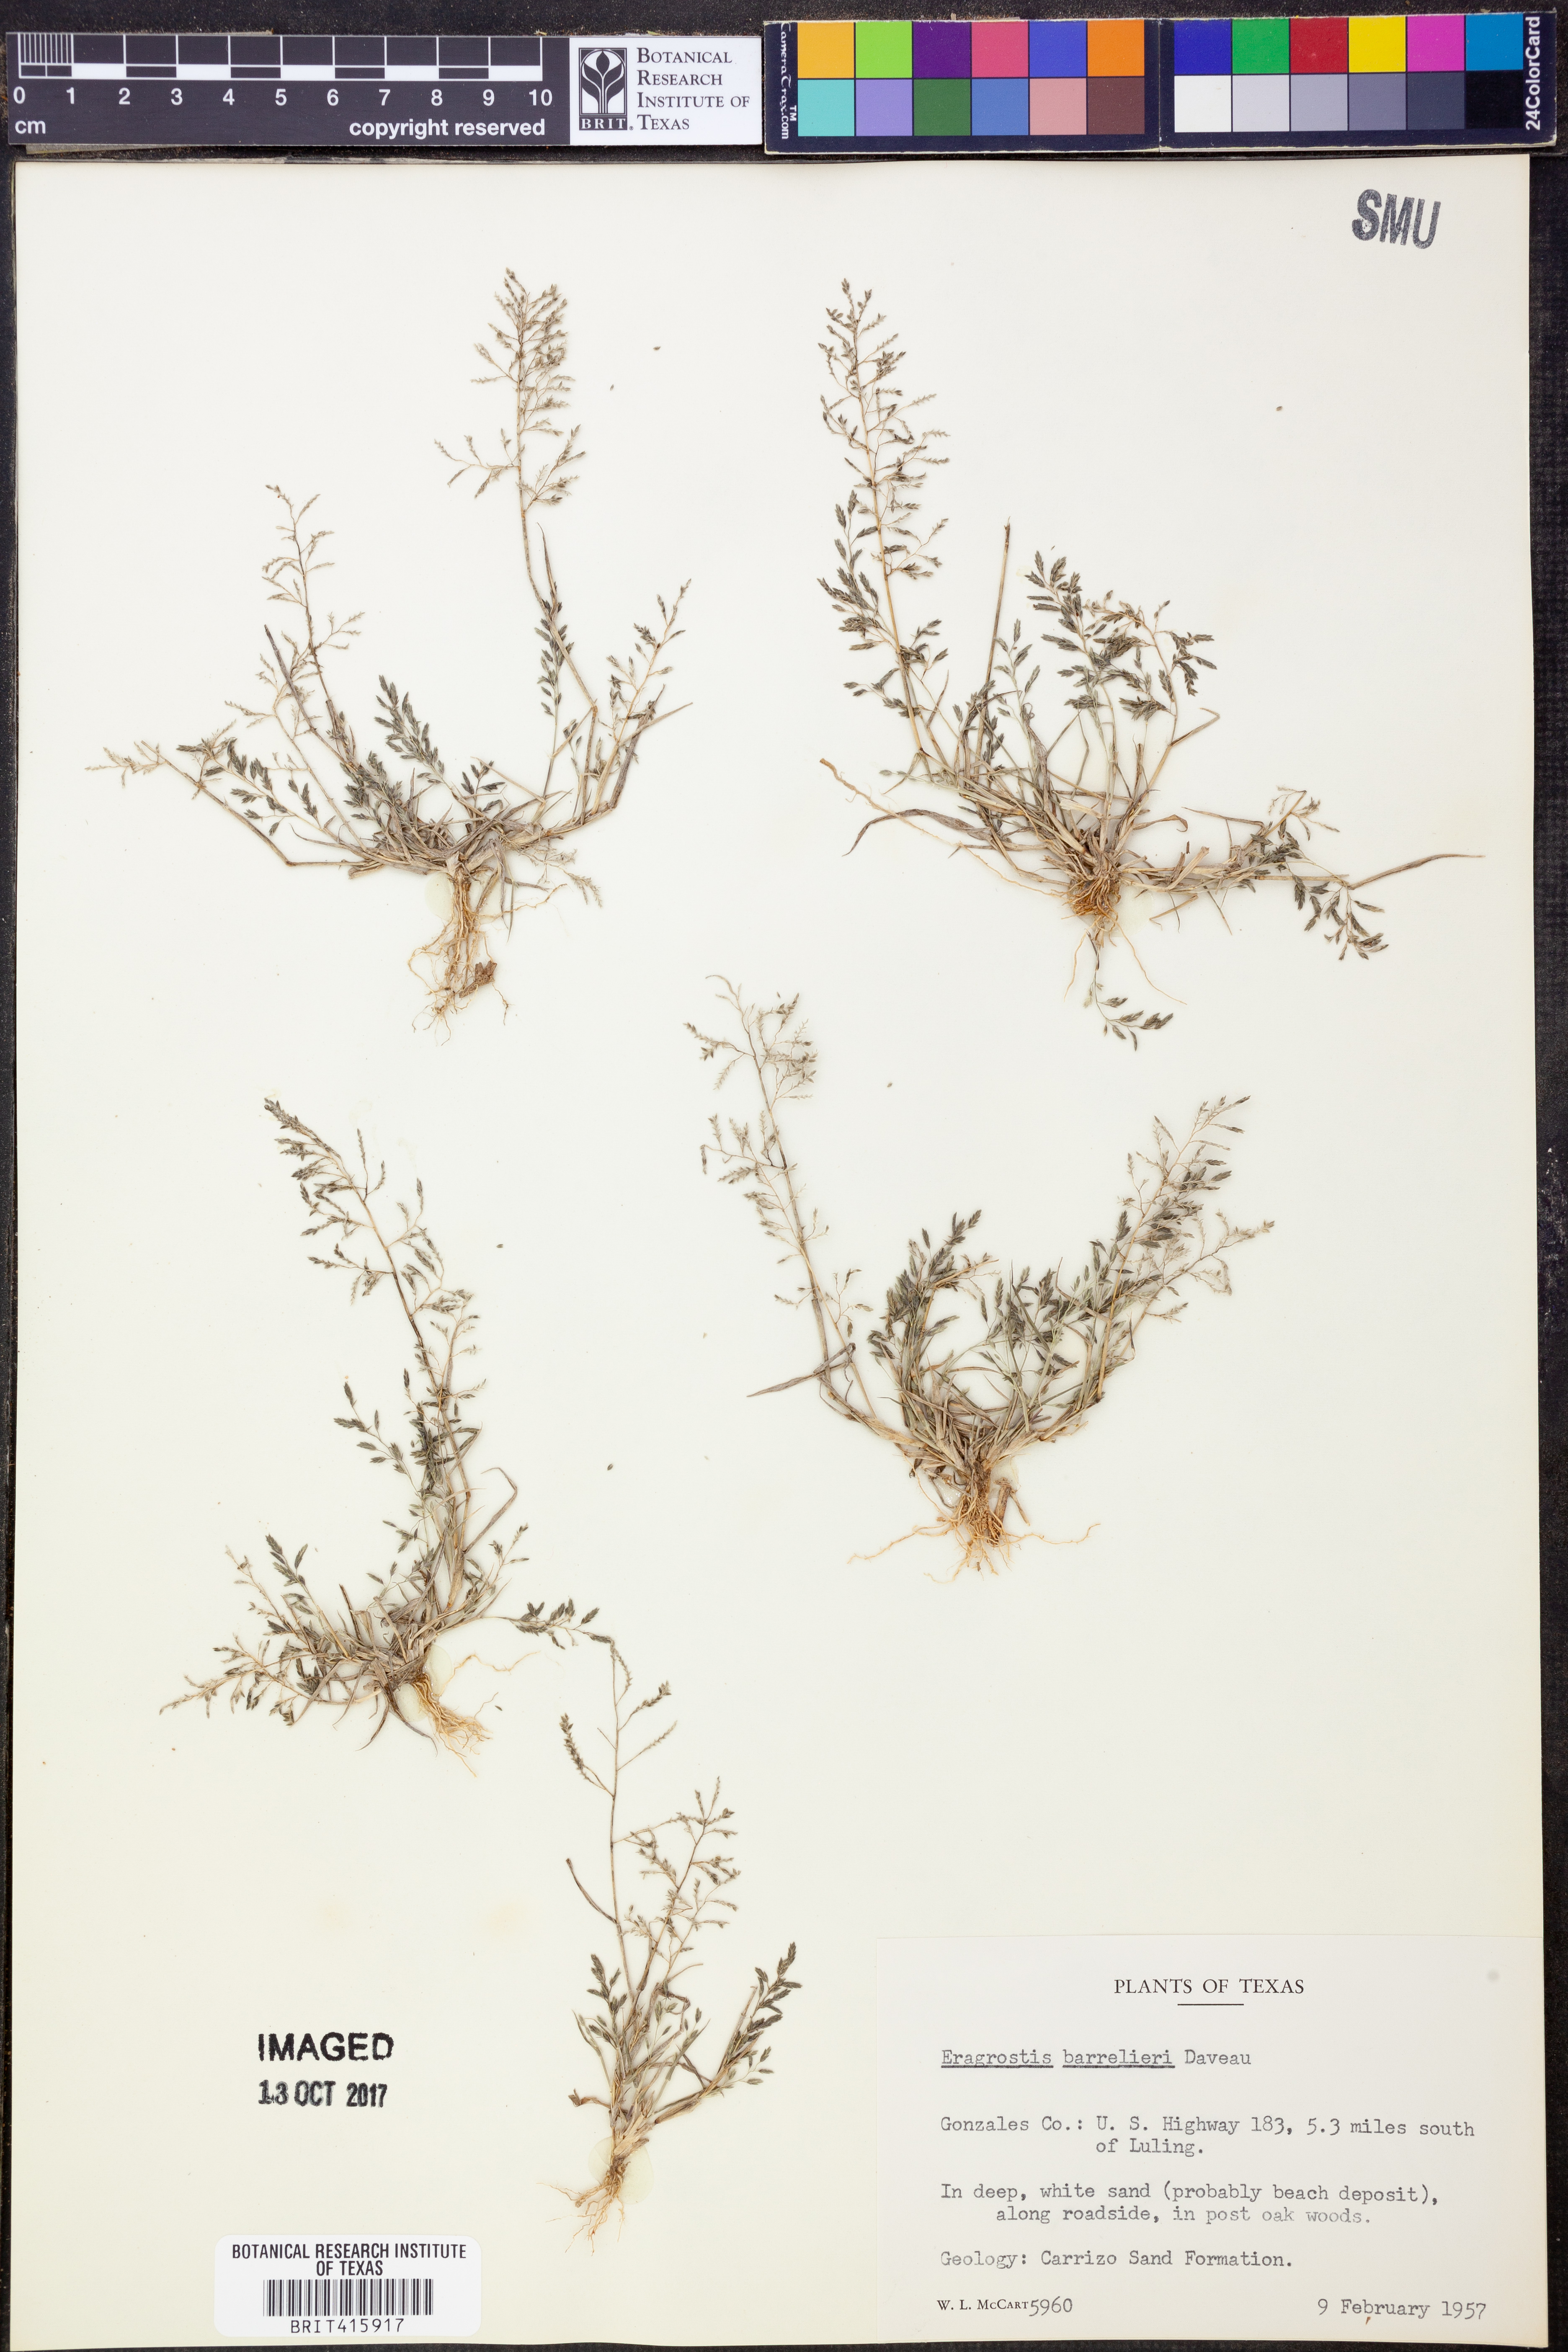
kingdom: Plantae
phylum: Tracheophyta
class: Liliopsida
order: Poales
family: Poaceae
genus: Eragrostis
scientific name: Eragrostis barrelieri
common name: Mediterranean lovegrass
